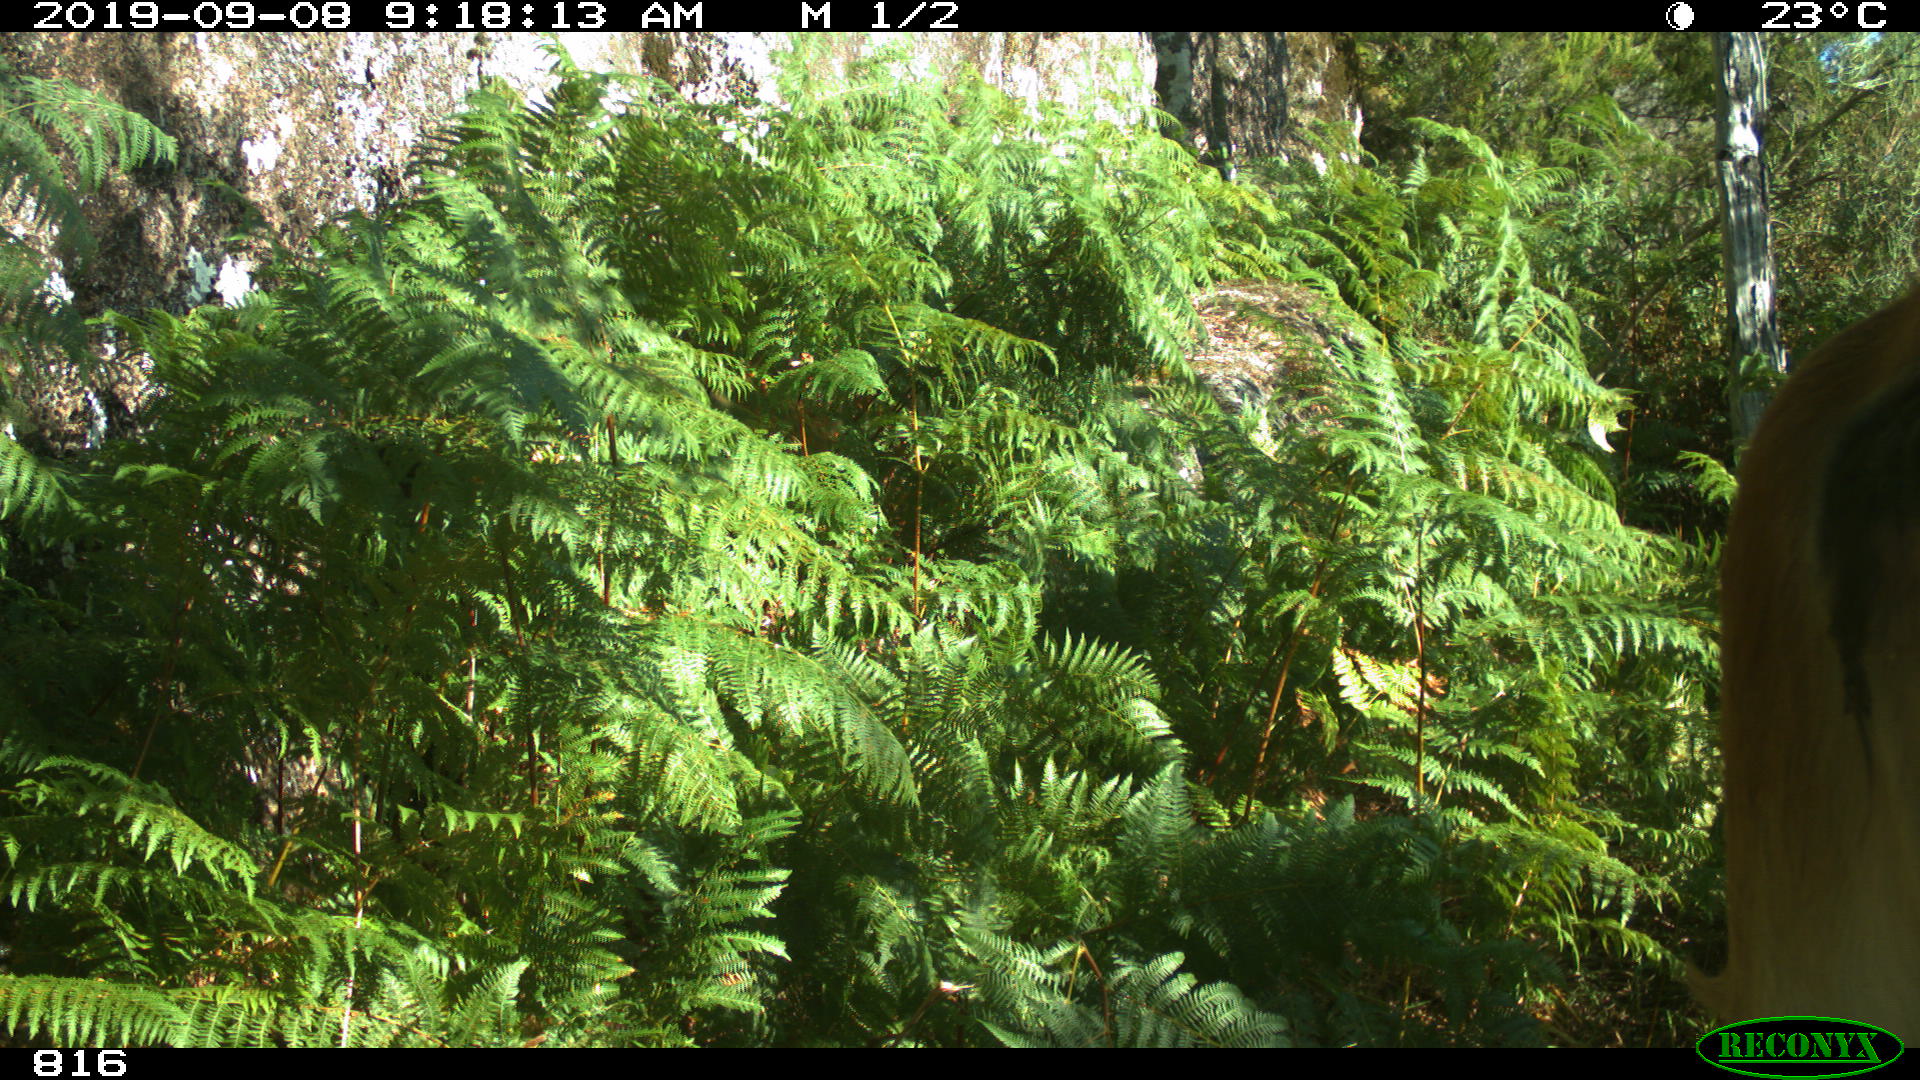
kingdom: Animalia
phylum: Chordata
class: Mammalia
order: Artiodactyla
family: Bovidae
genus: Bos
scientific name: Bos taurus
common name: Domesticated cattle
